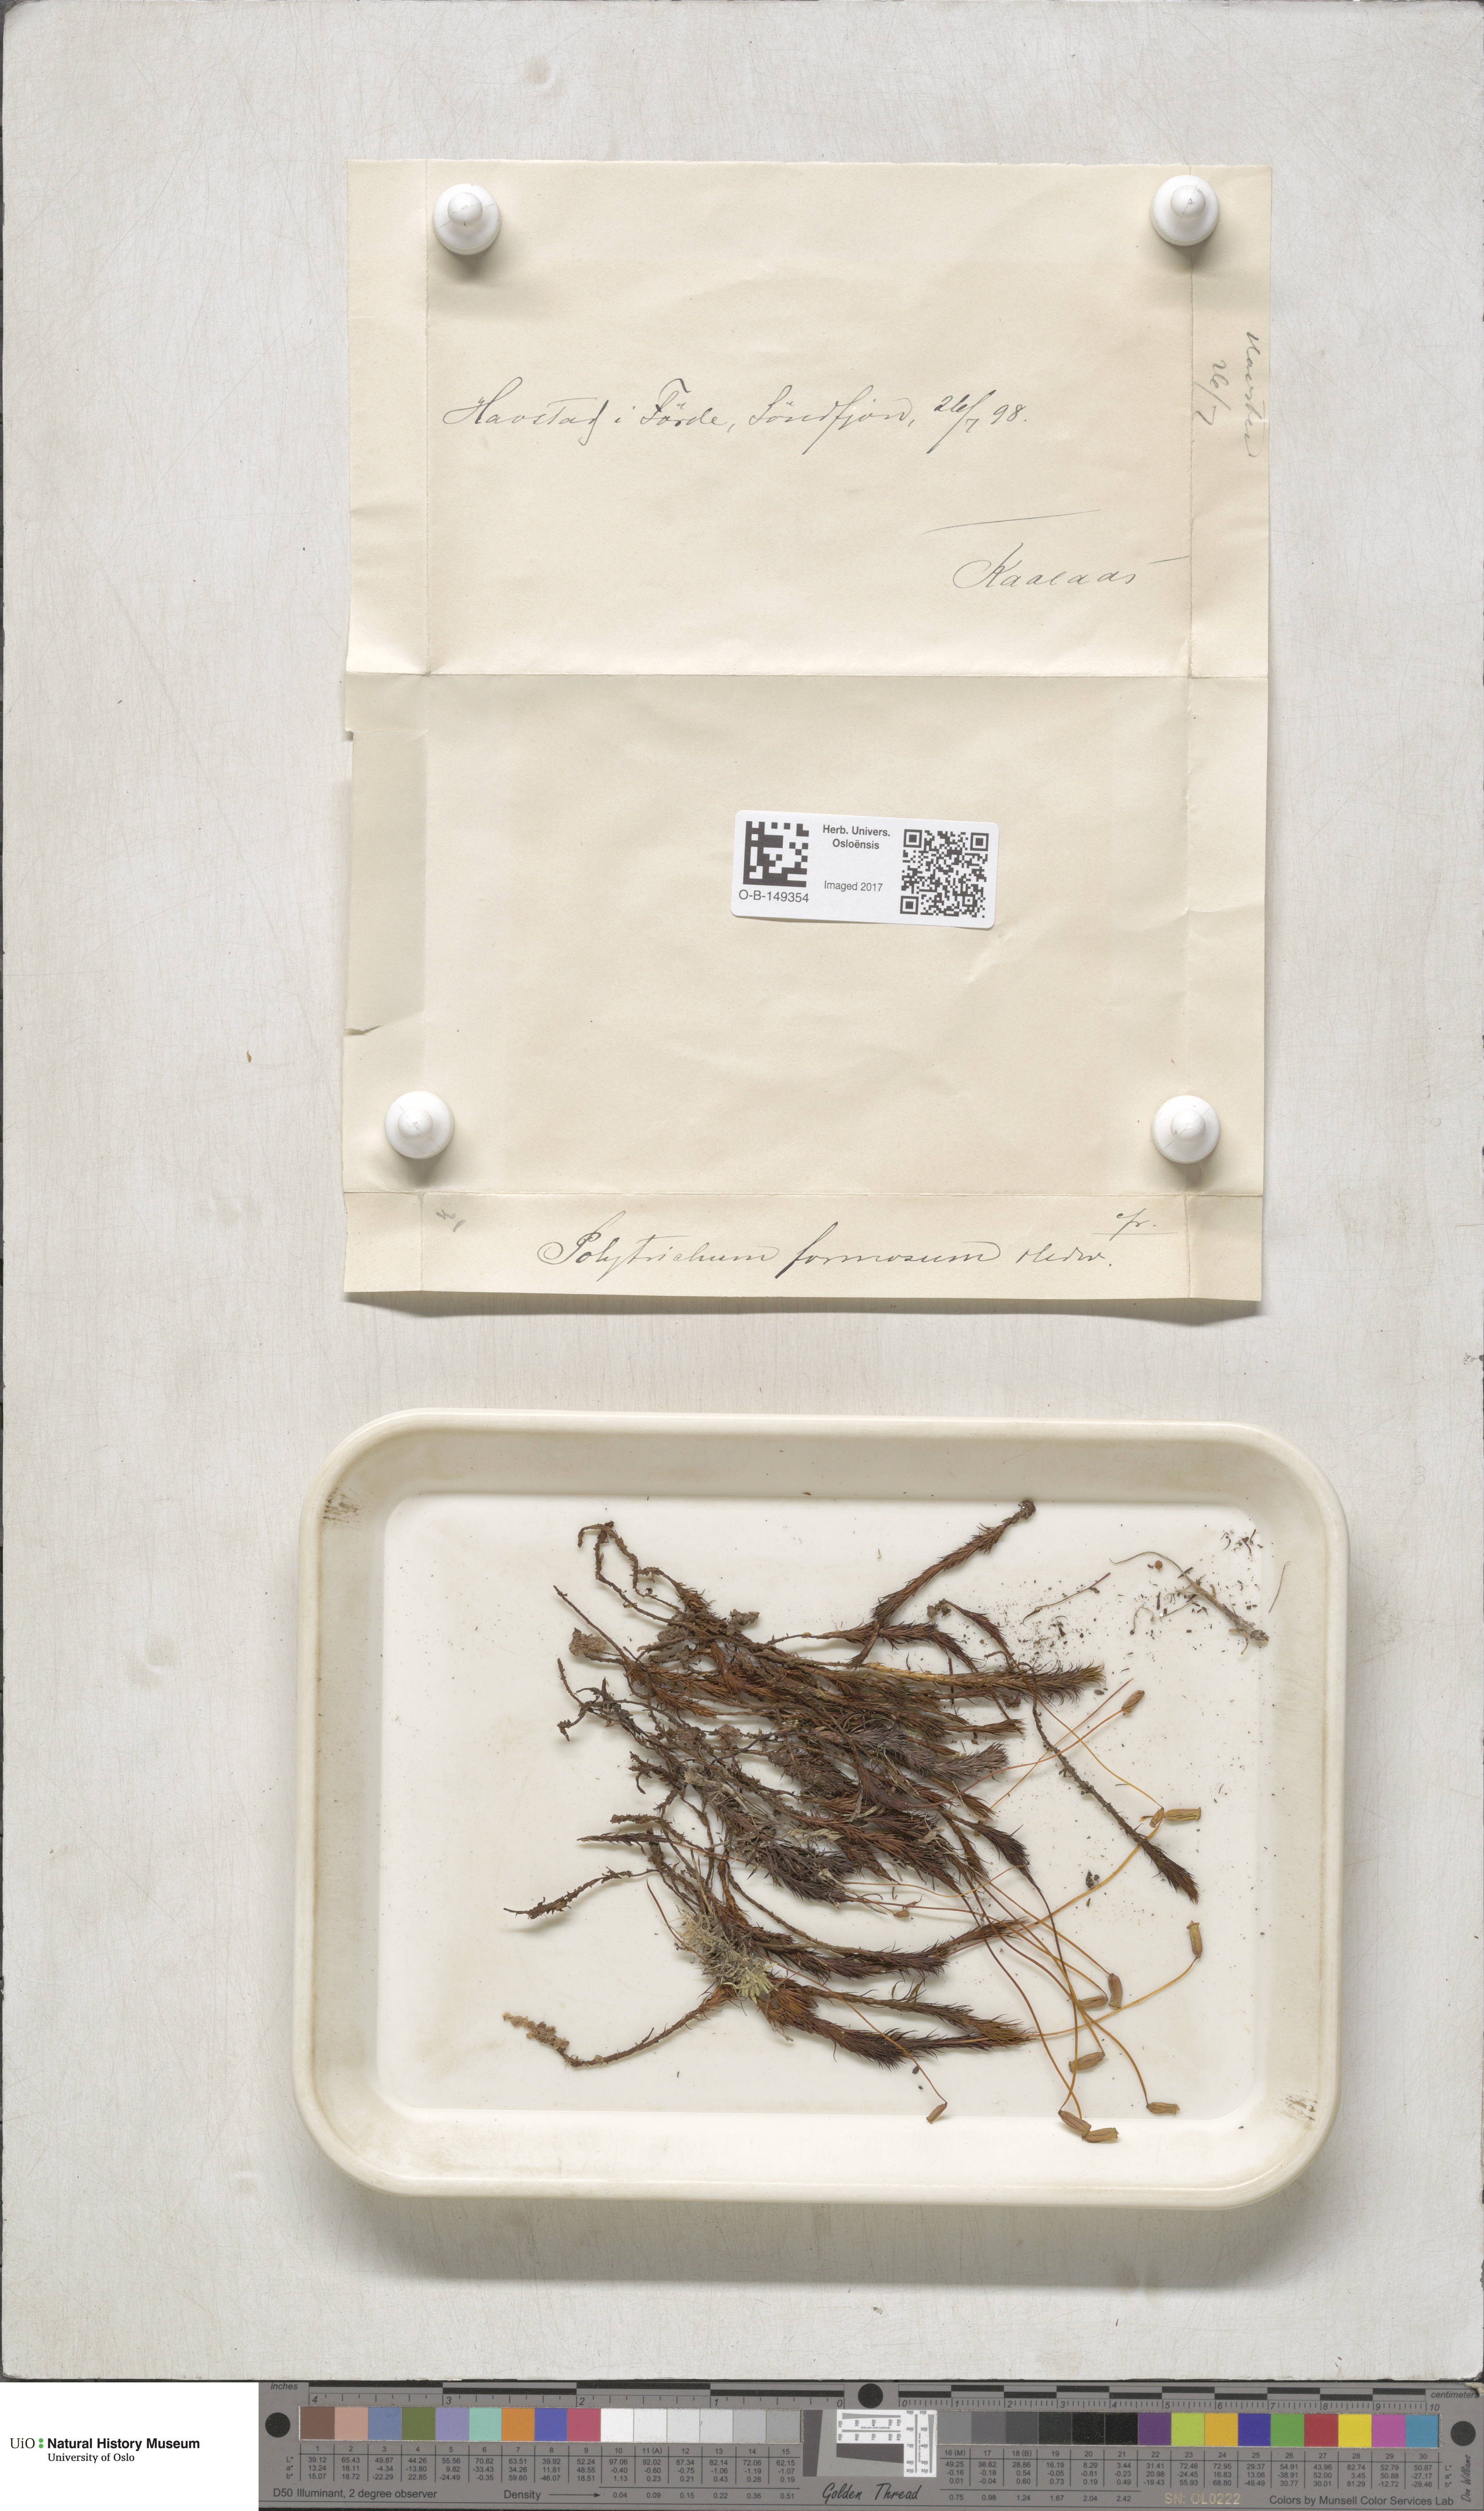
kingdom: Plantae
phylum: Bryophyta
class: Polytrichopsida
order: Polytrichales
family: Polytrichaceae
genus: Polytrichum
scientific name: Polytrichum formosum
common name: Bank haircap moss
